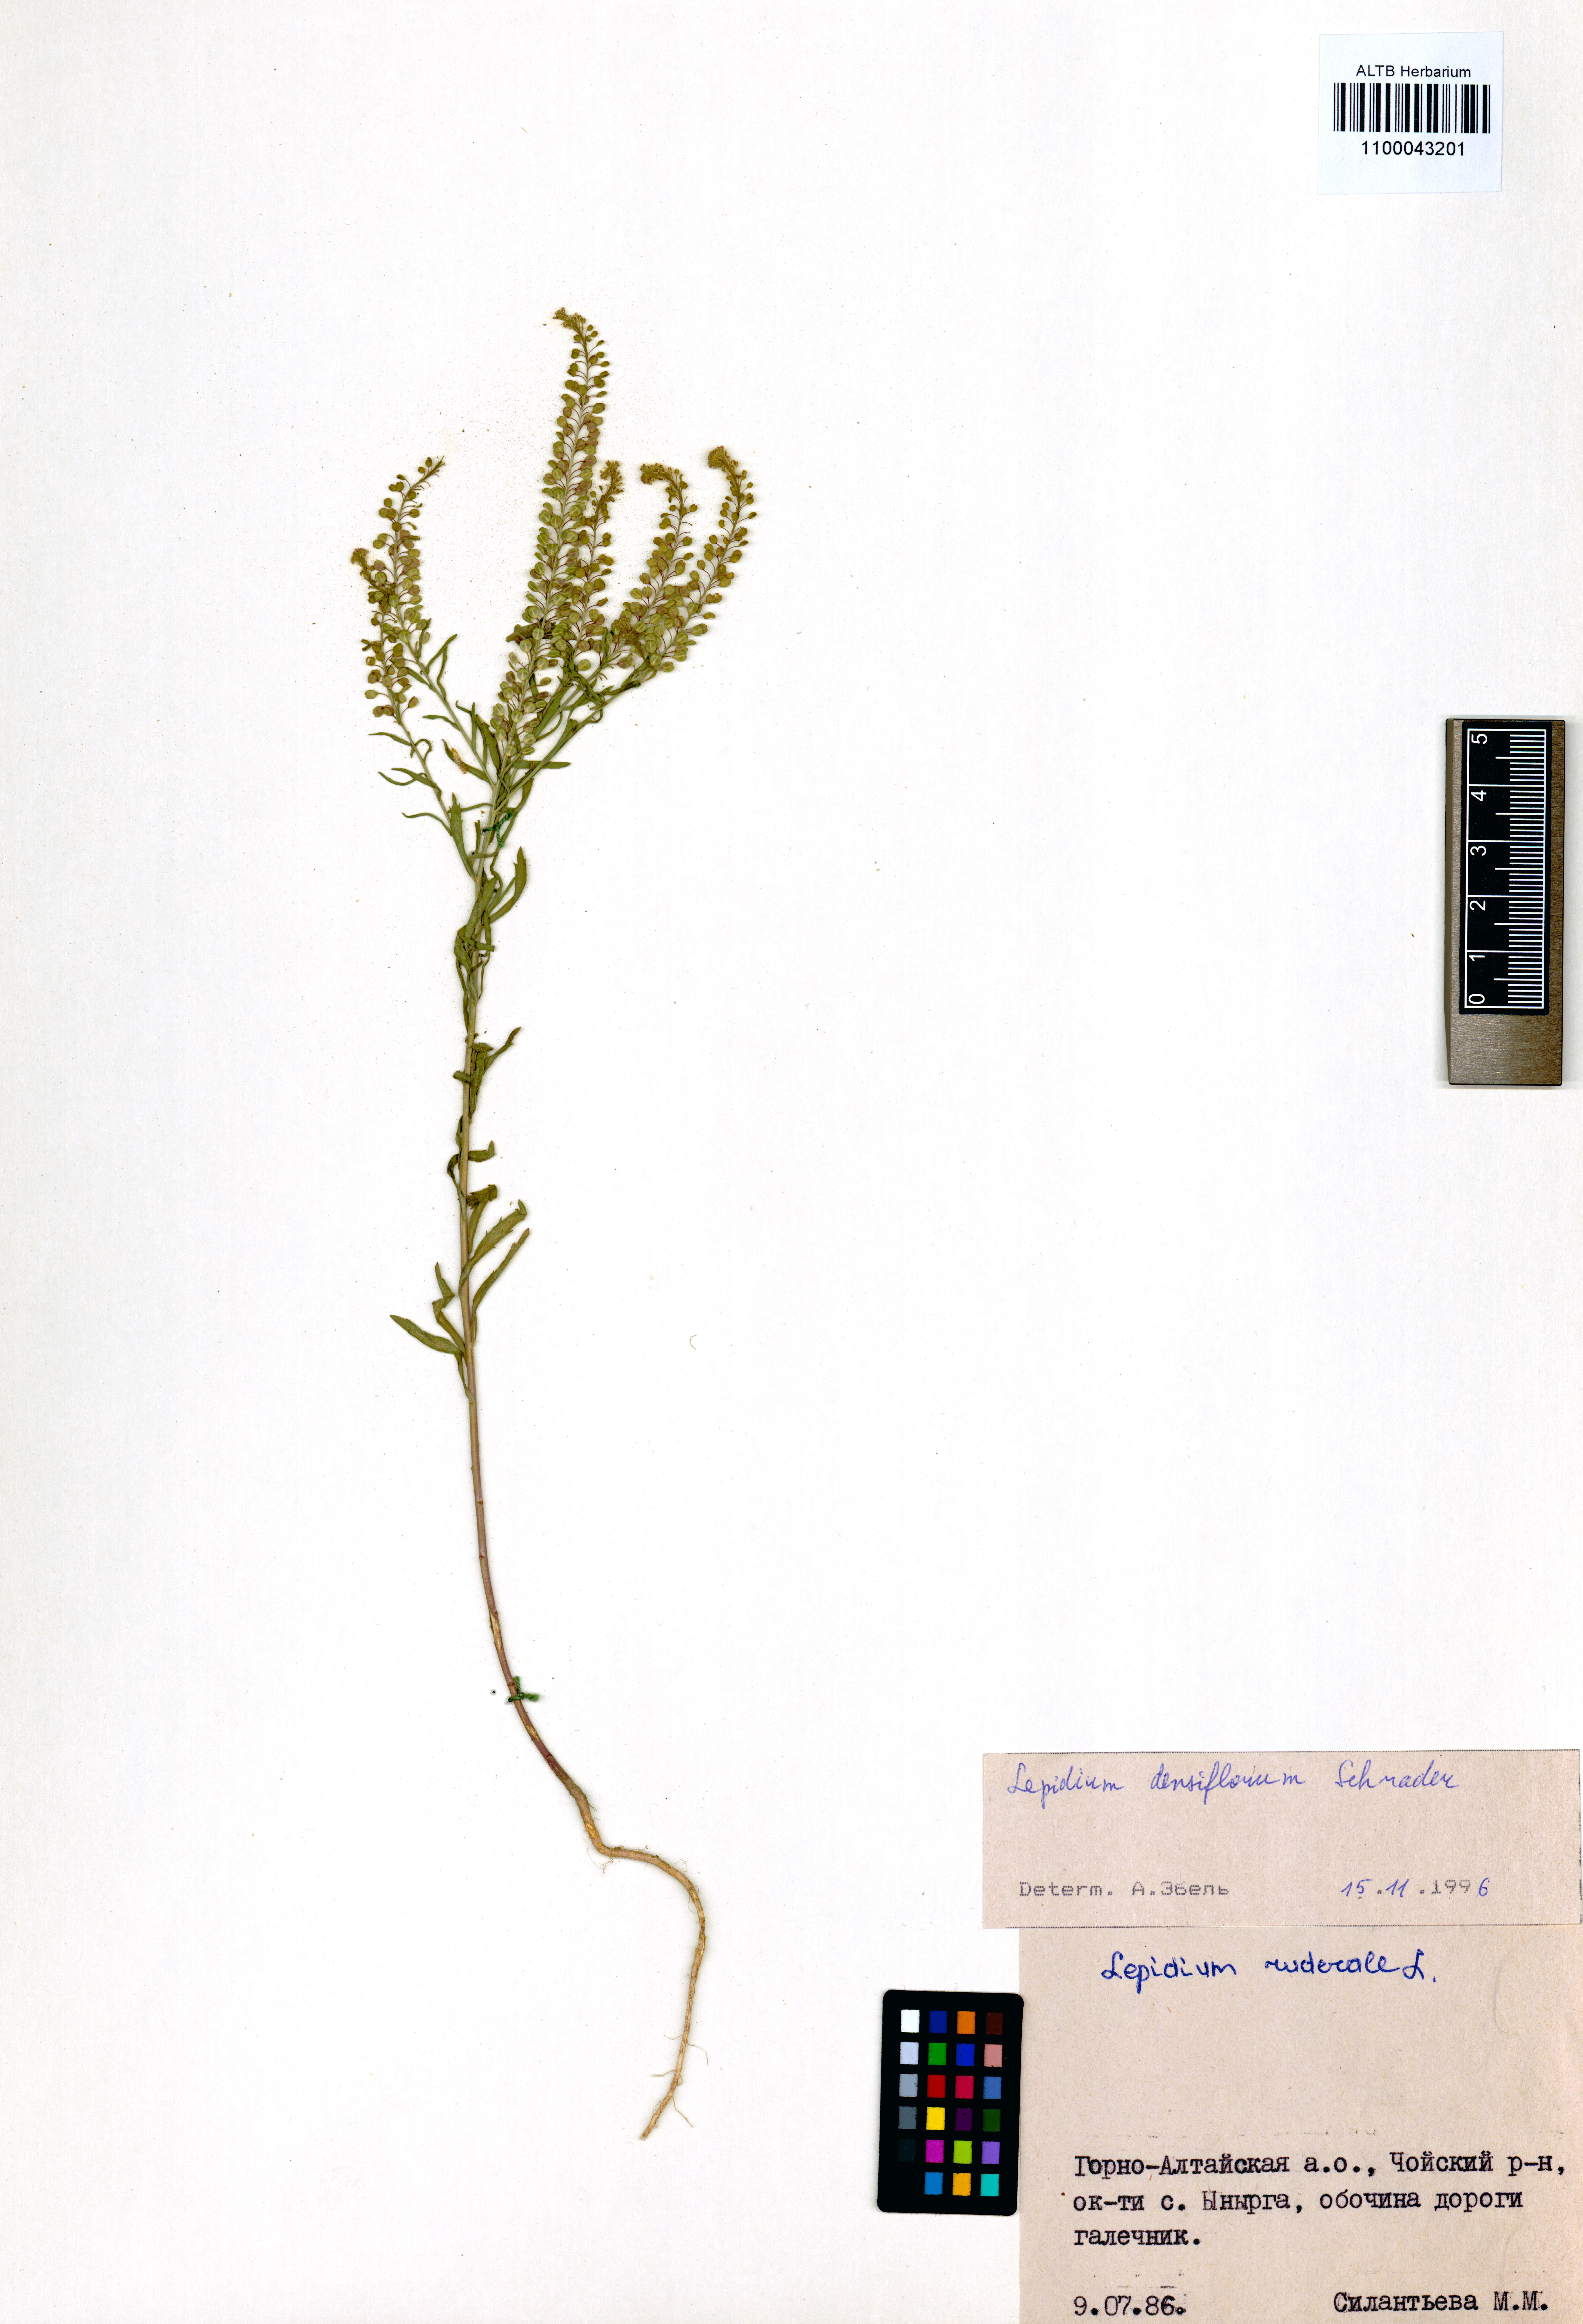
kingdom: Plantae
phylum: Tracheophyta
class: Magnoliopsida
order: Brassicales
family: Brassicaceae
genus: Lepidium
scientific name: Lepidium densiflorum
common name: Miner's pepperwort
